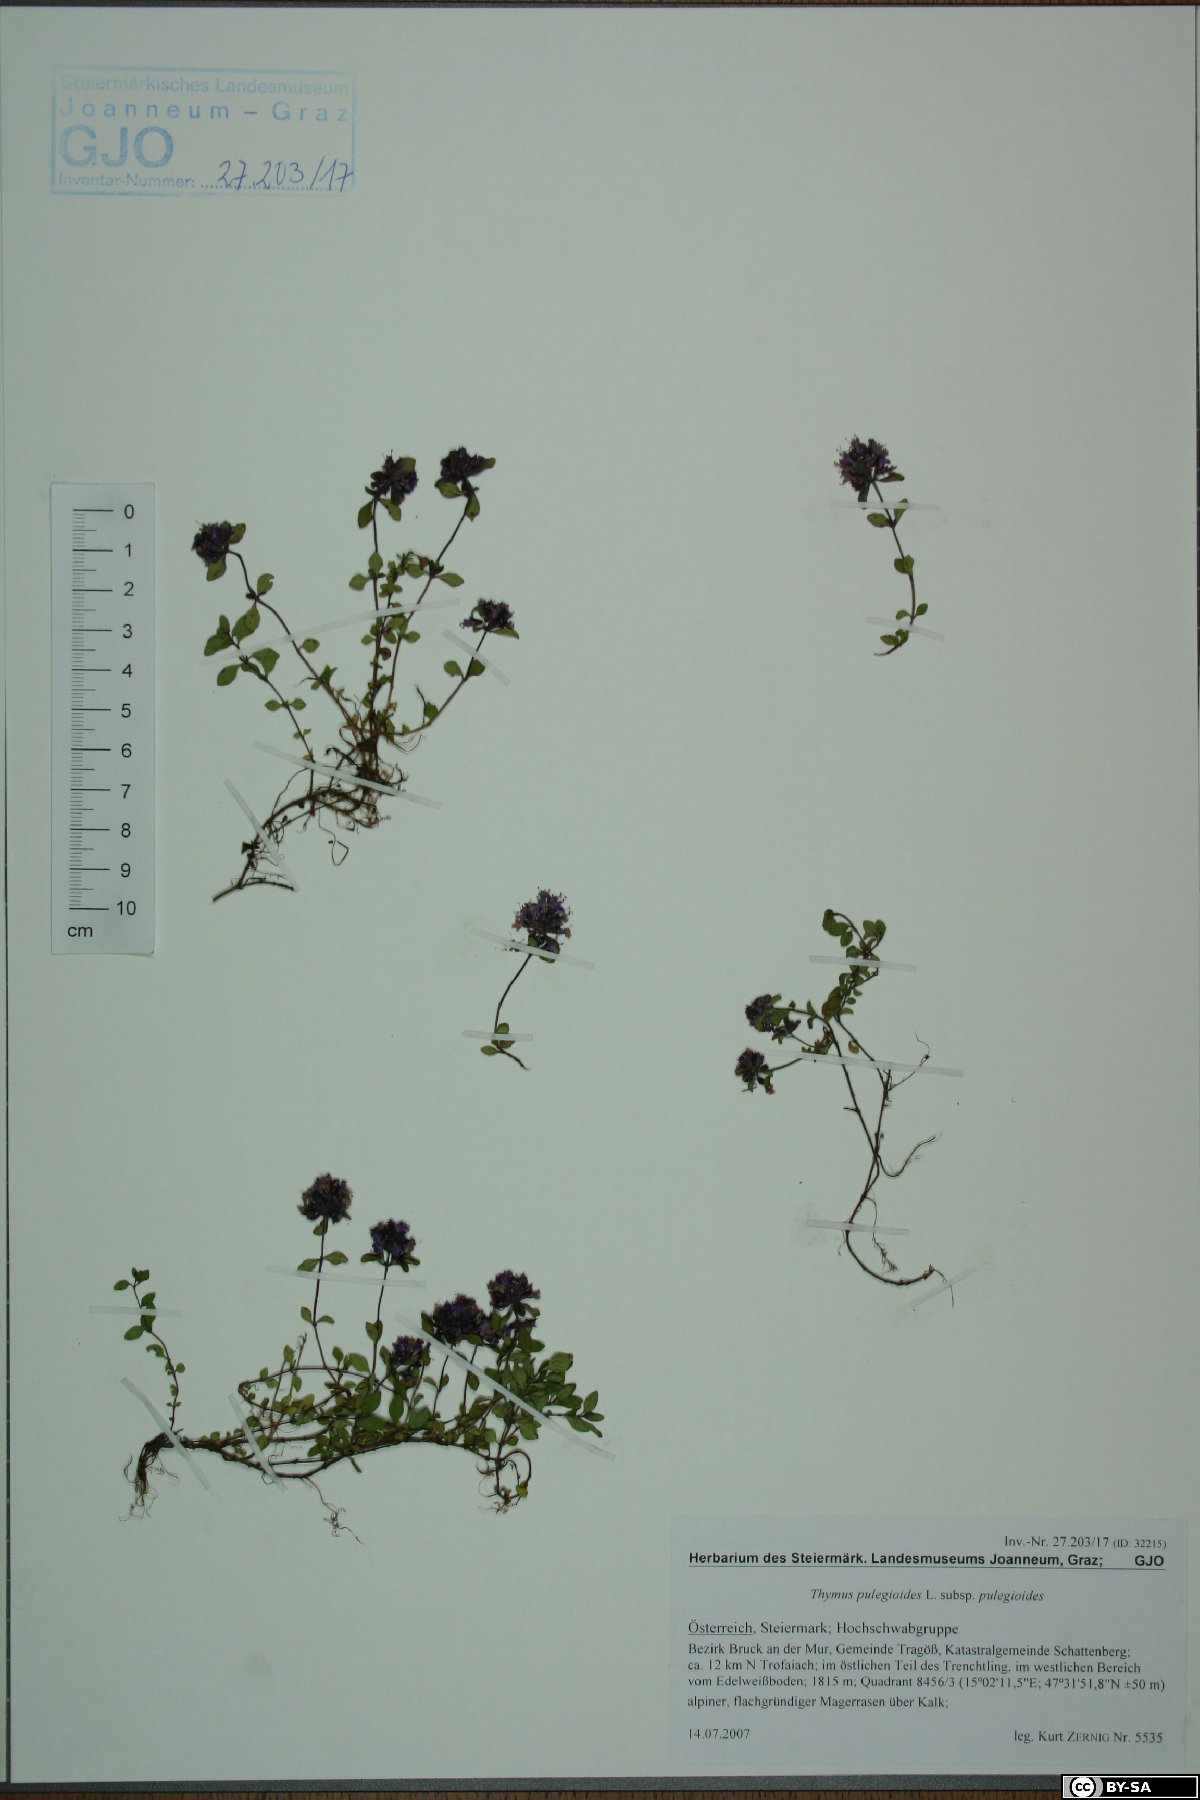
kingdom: Plantae
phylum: Tracheophyta
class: Magnoliopsida
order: Lamiales
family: Lamiaceae
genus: Thymus
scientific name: Thymus pulegioides
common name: Large thyme
